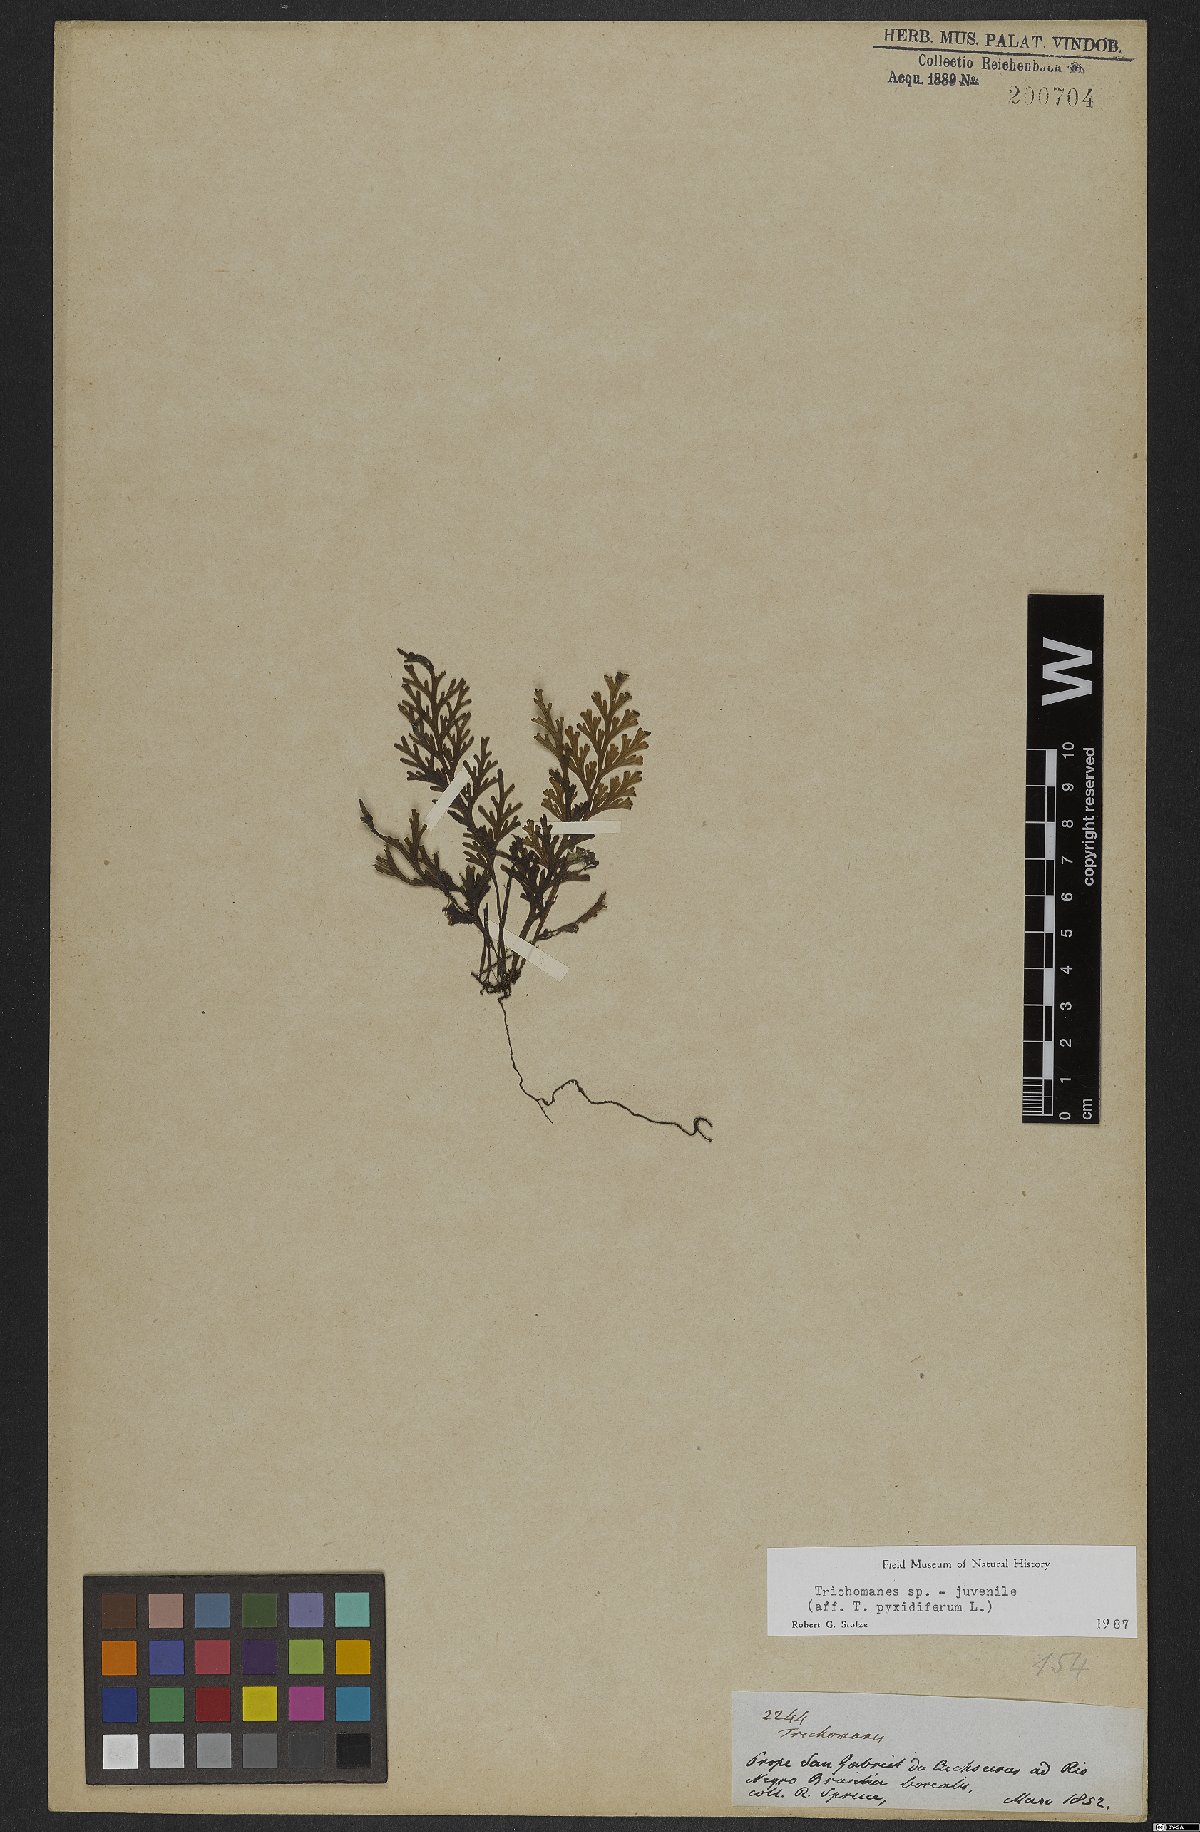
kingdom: Plantae
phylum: Tracheophyta
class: Polypodiopsida
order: Hymenophyllales
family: Hymenophyllaceae
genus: Trichomanes
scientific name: Trichomanes
